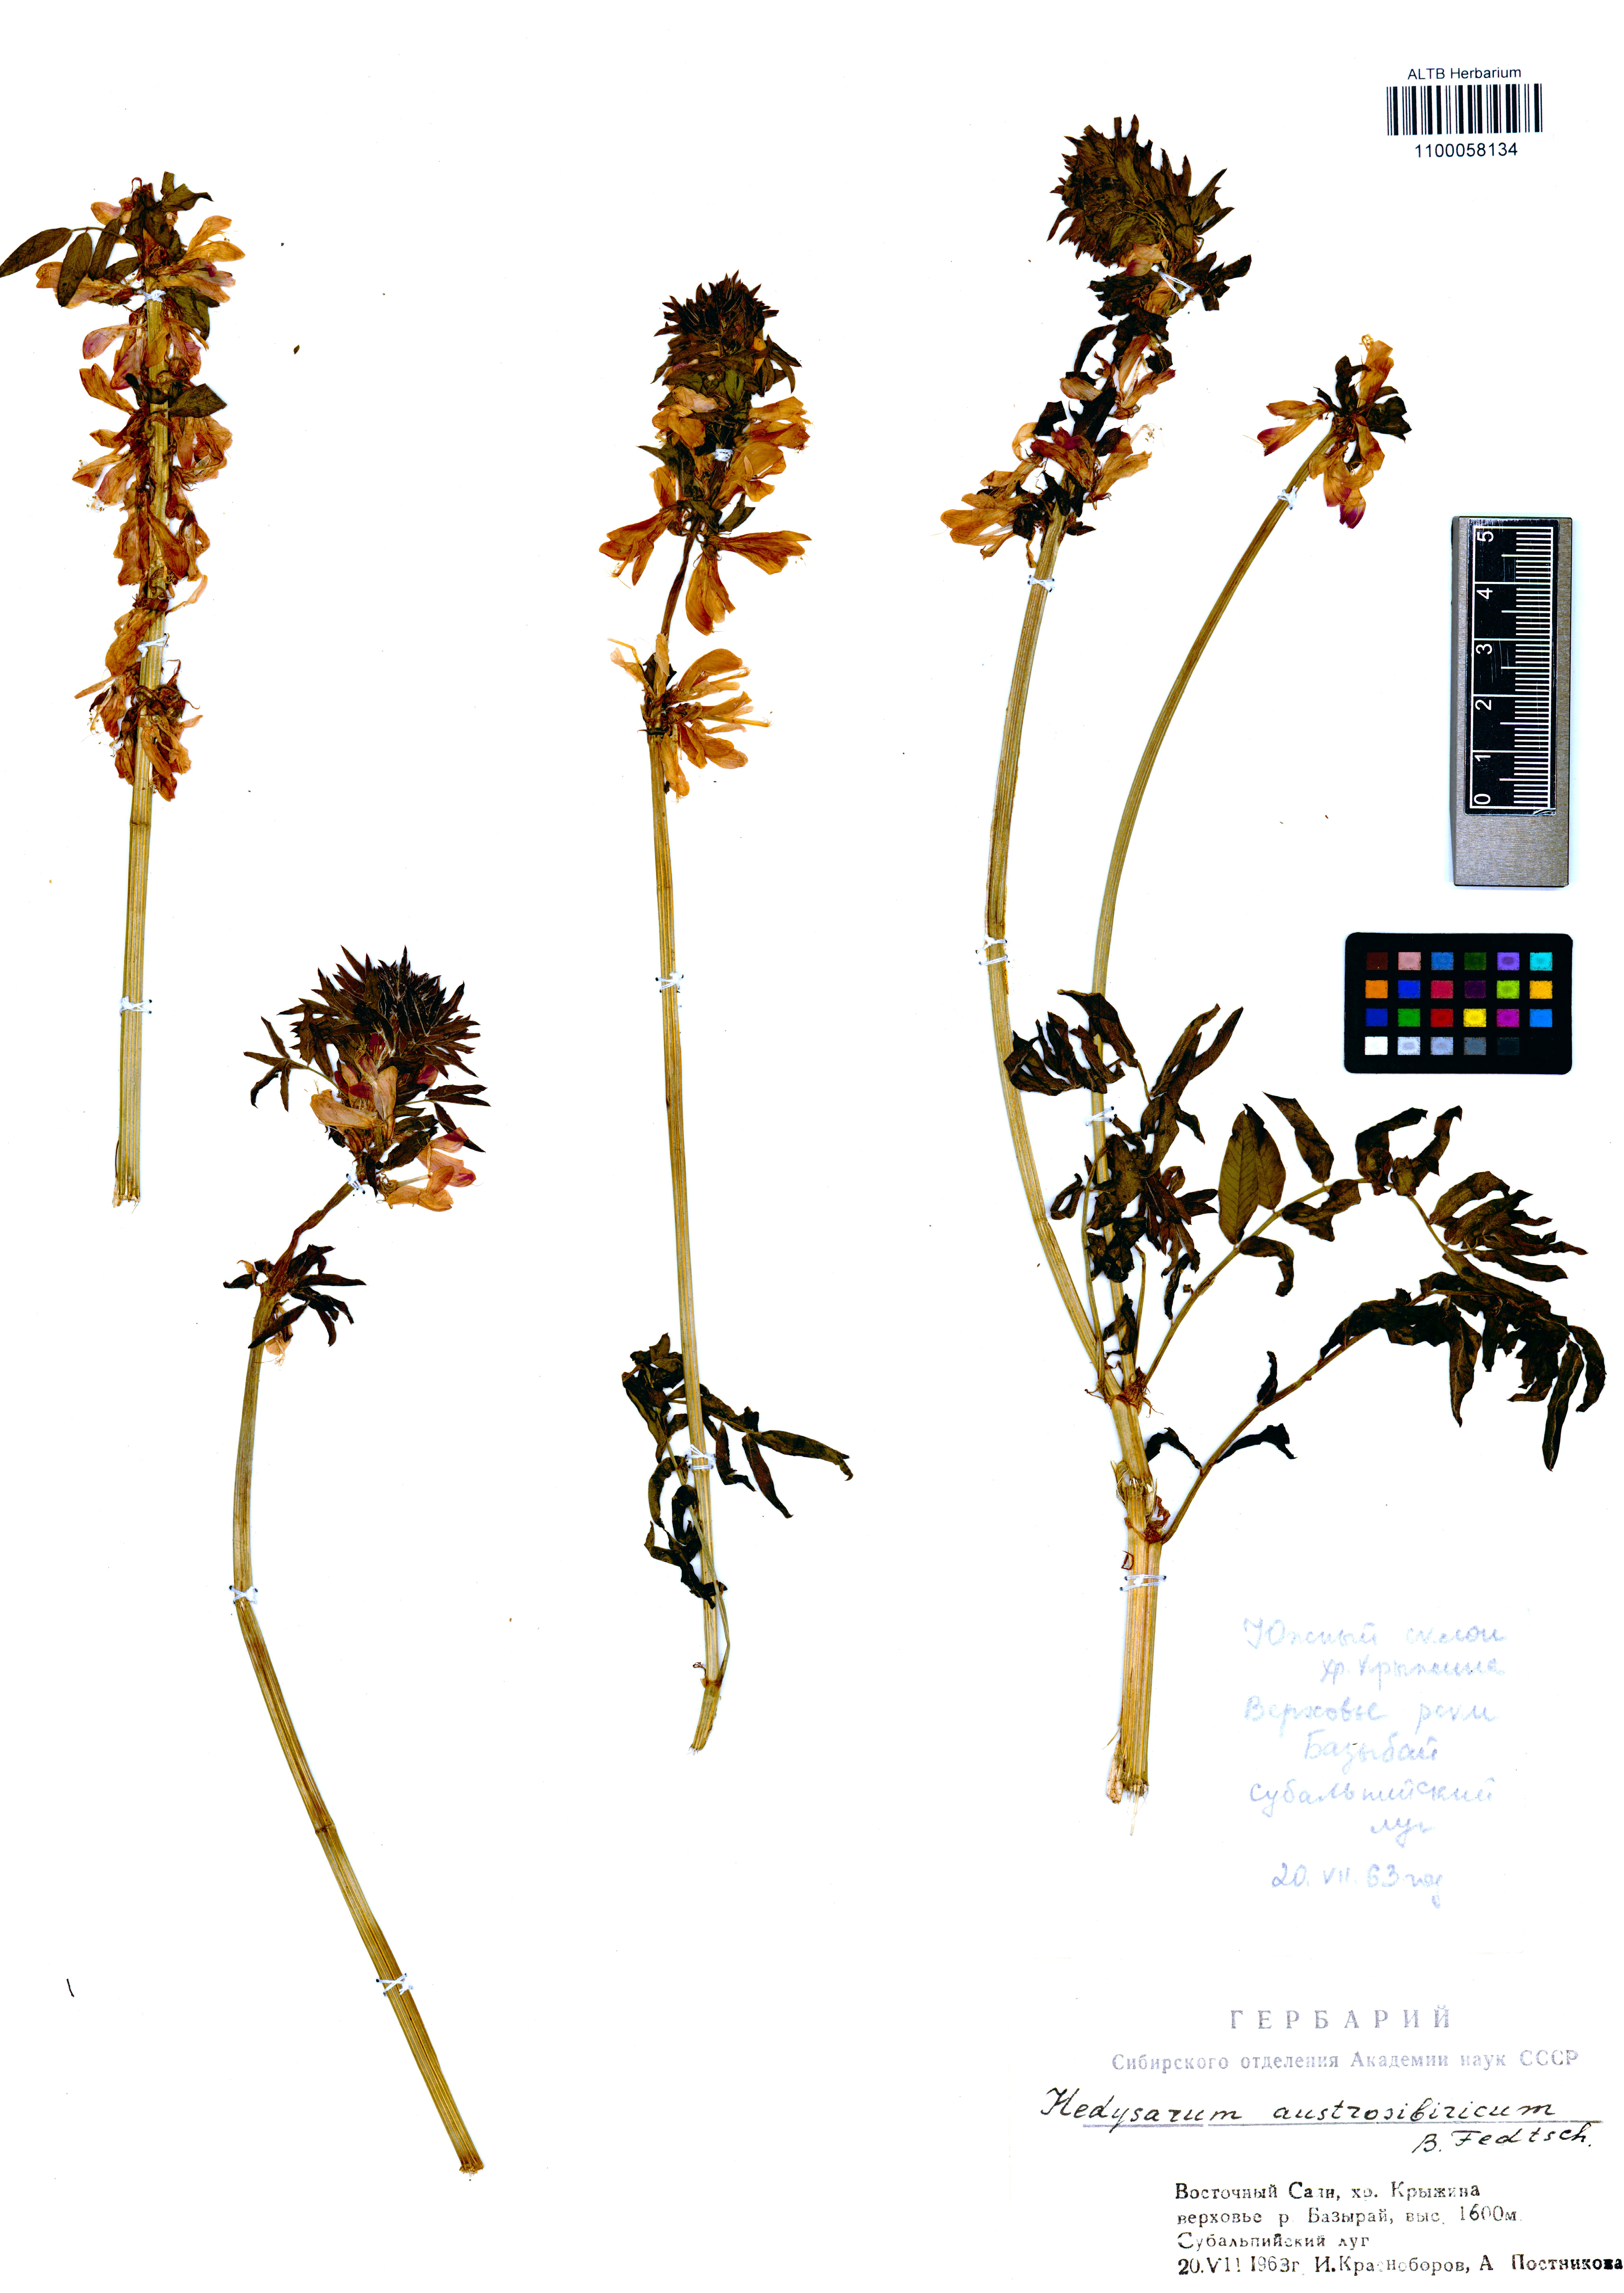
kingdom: Plantae
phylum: Tracheophyta
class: Magnoliopsida
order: Fabales
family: Fabaceae
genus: Hedysarum
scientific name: Hedysarum neglectum
